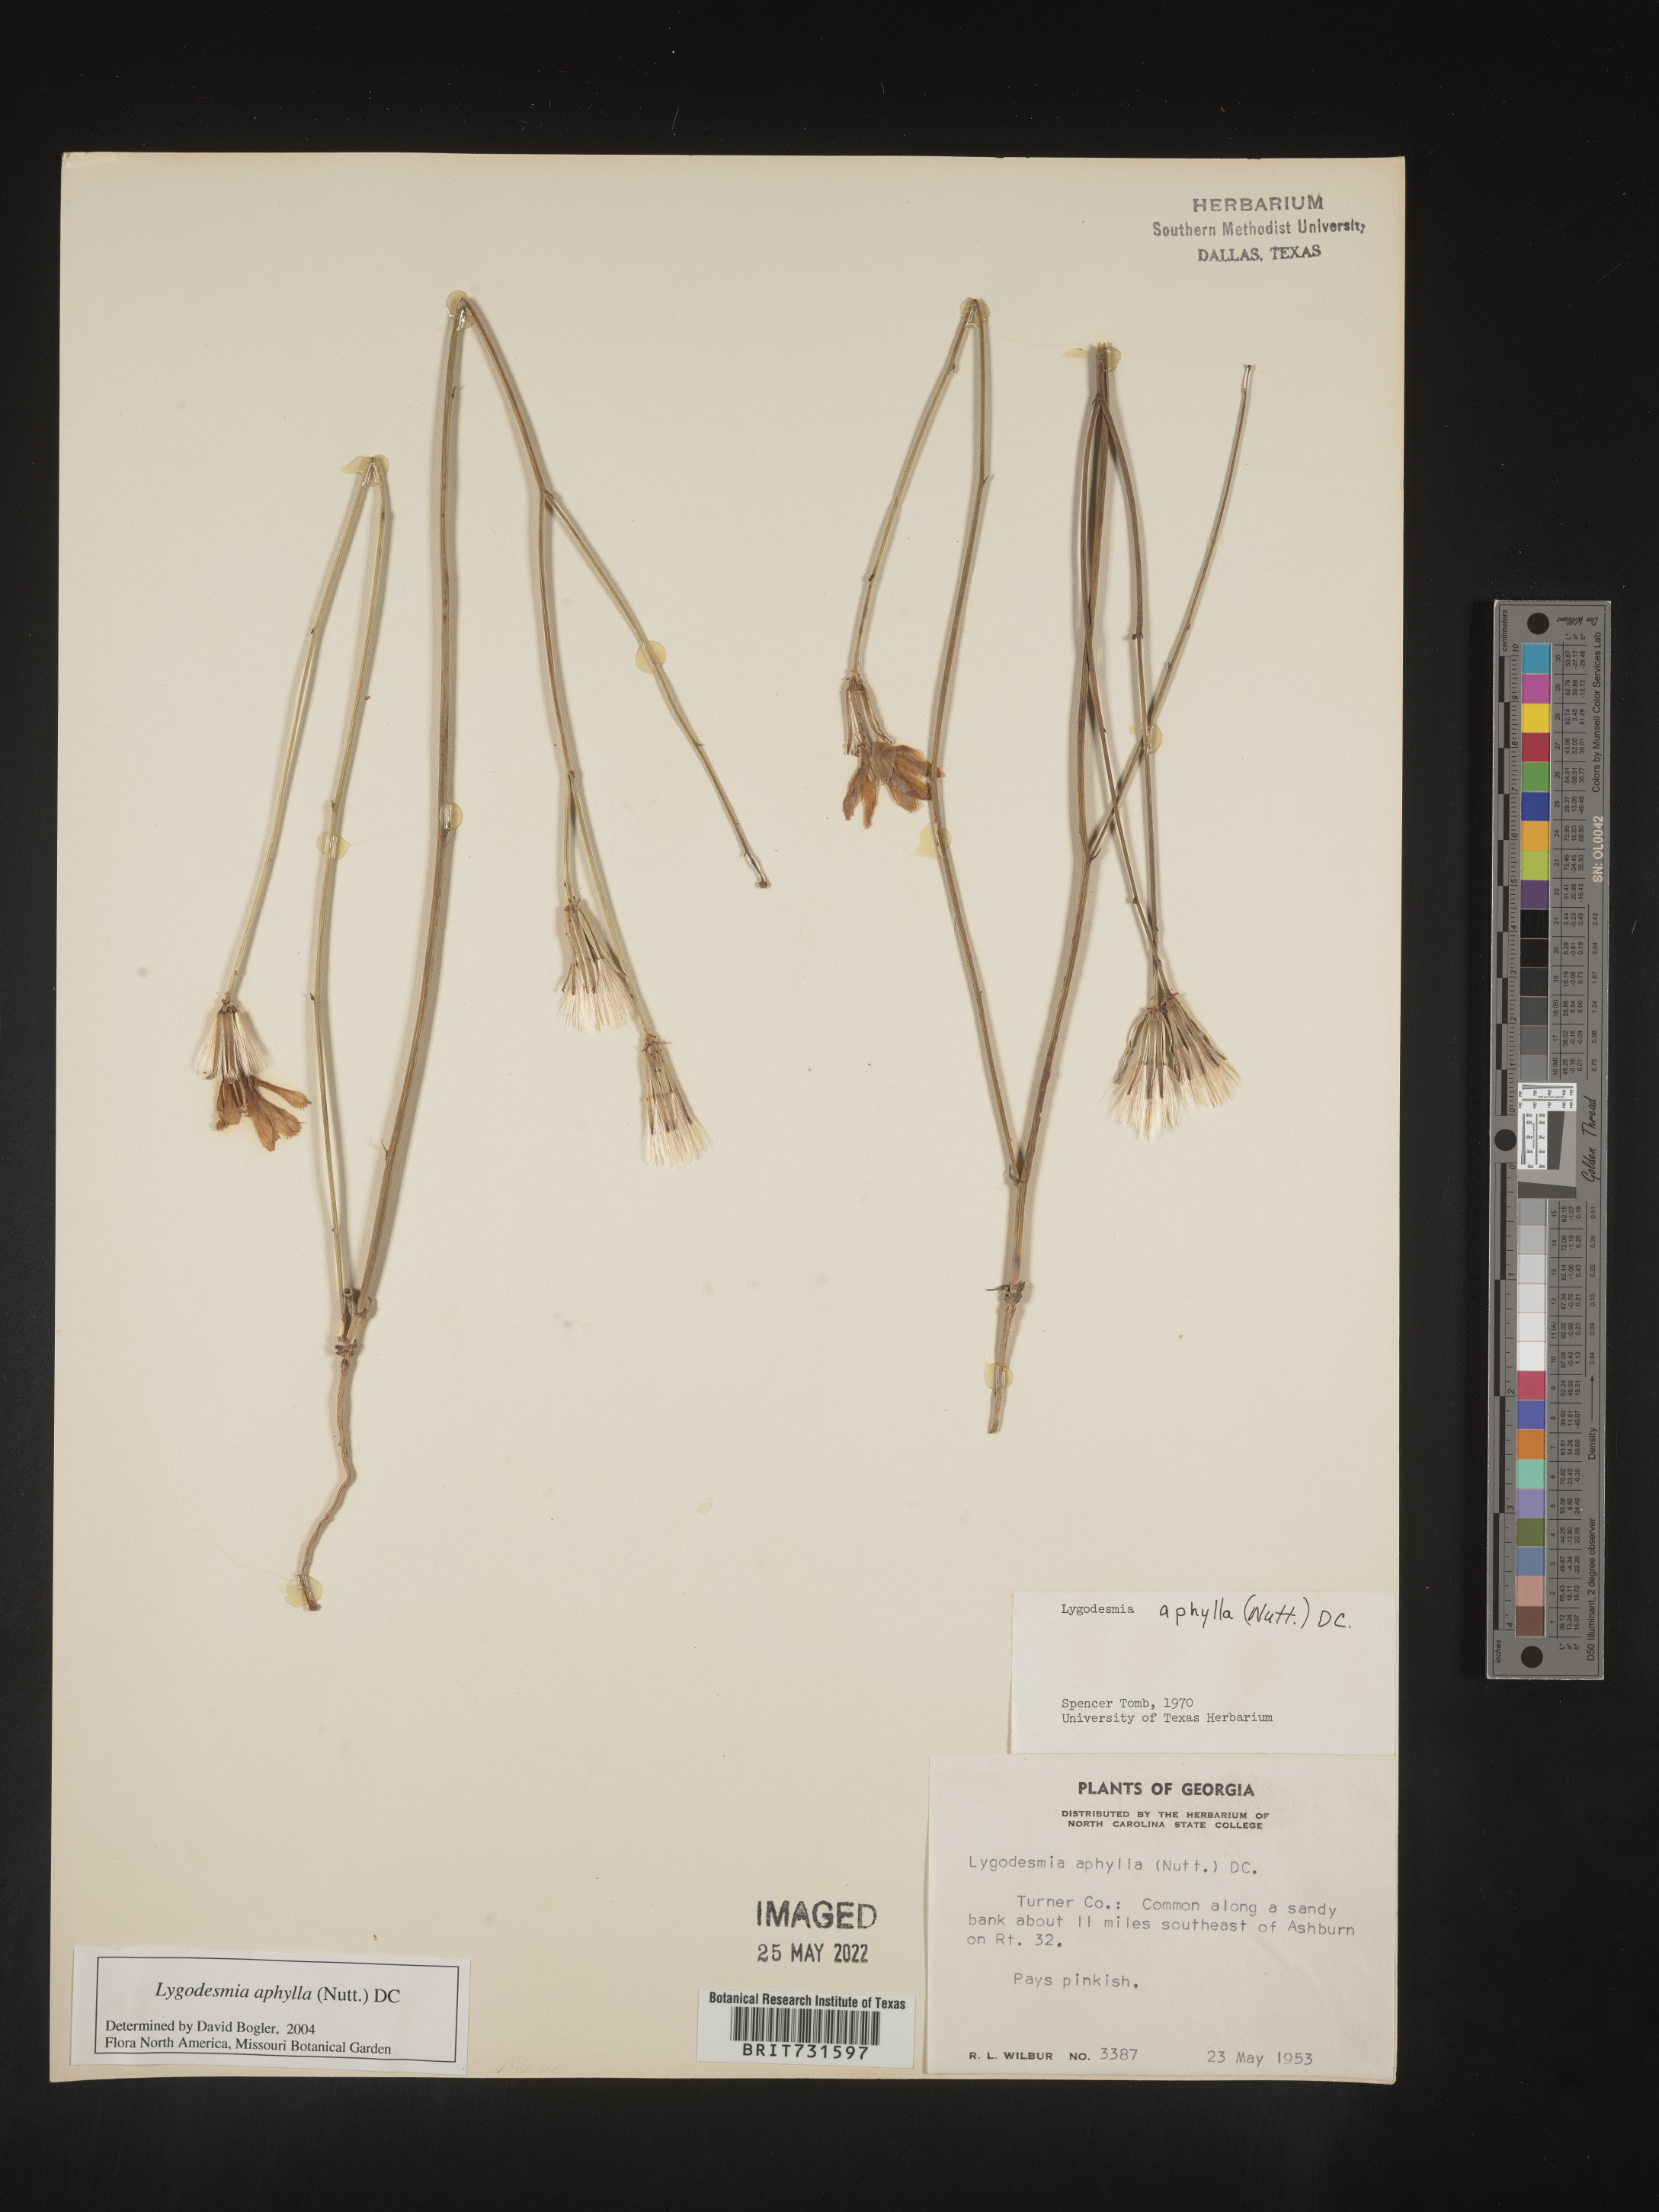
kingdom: Plantae
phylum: Tracheophyta
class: Magnoliopsida
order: Asterales
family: Asteraceae
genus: Lygodesmia
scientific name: Lygodesmia aphylla
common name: Rose-rush
